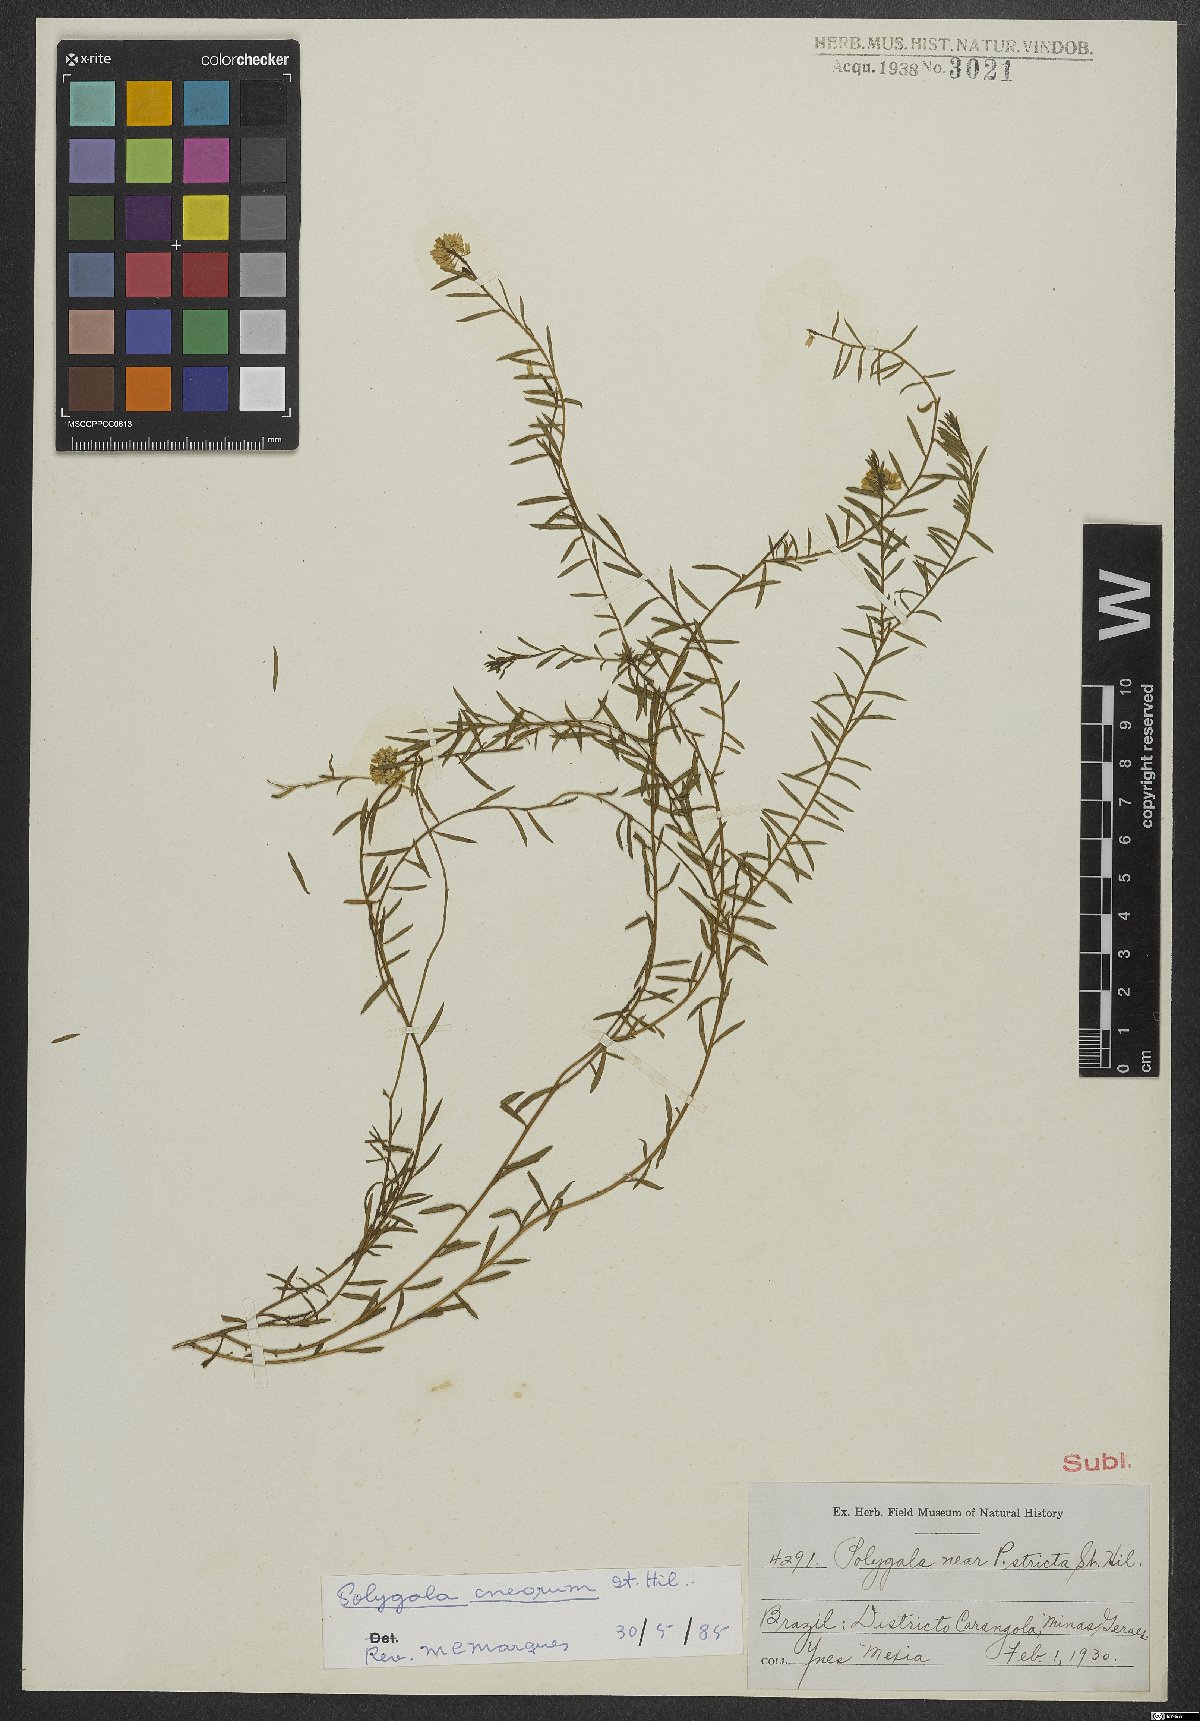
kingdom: Plantae
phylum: Tracheophyta
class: Magnoliopsida
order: Fabales
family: Polygalaceae
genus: Polygala
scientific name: Polygala cneorum
